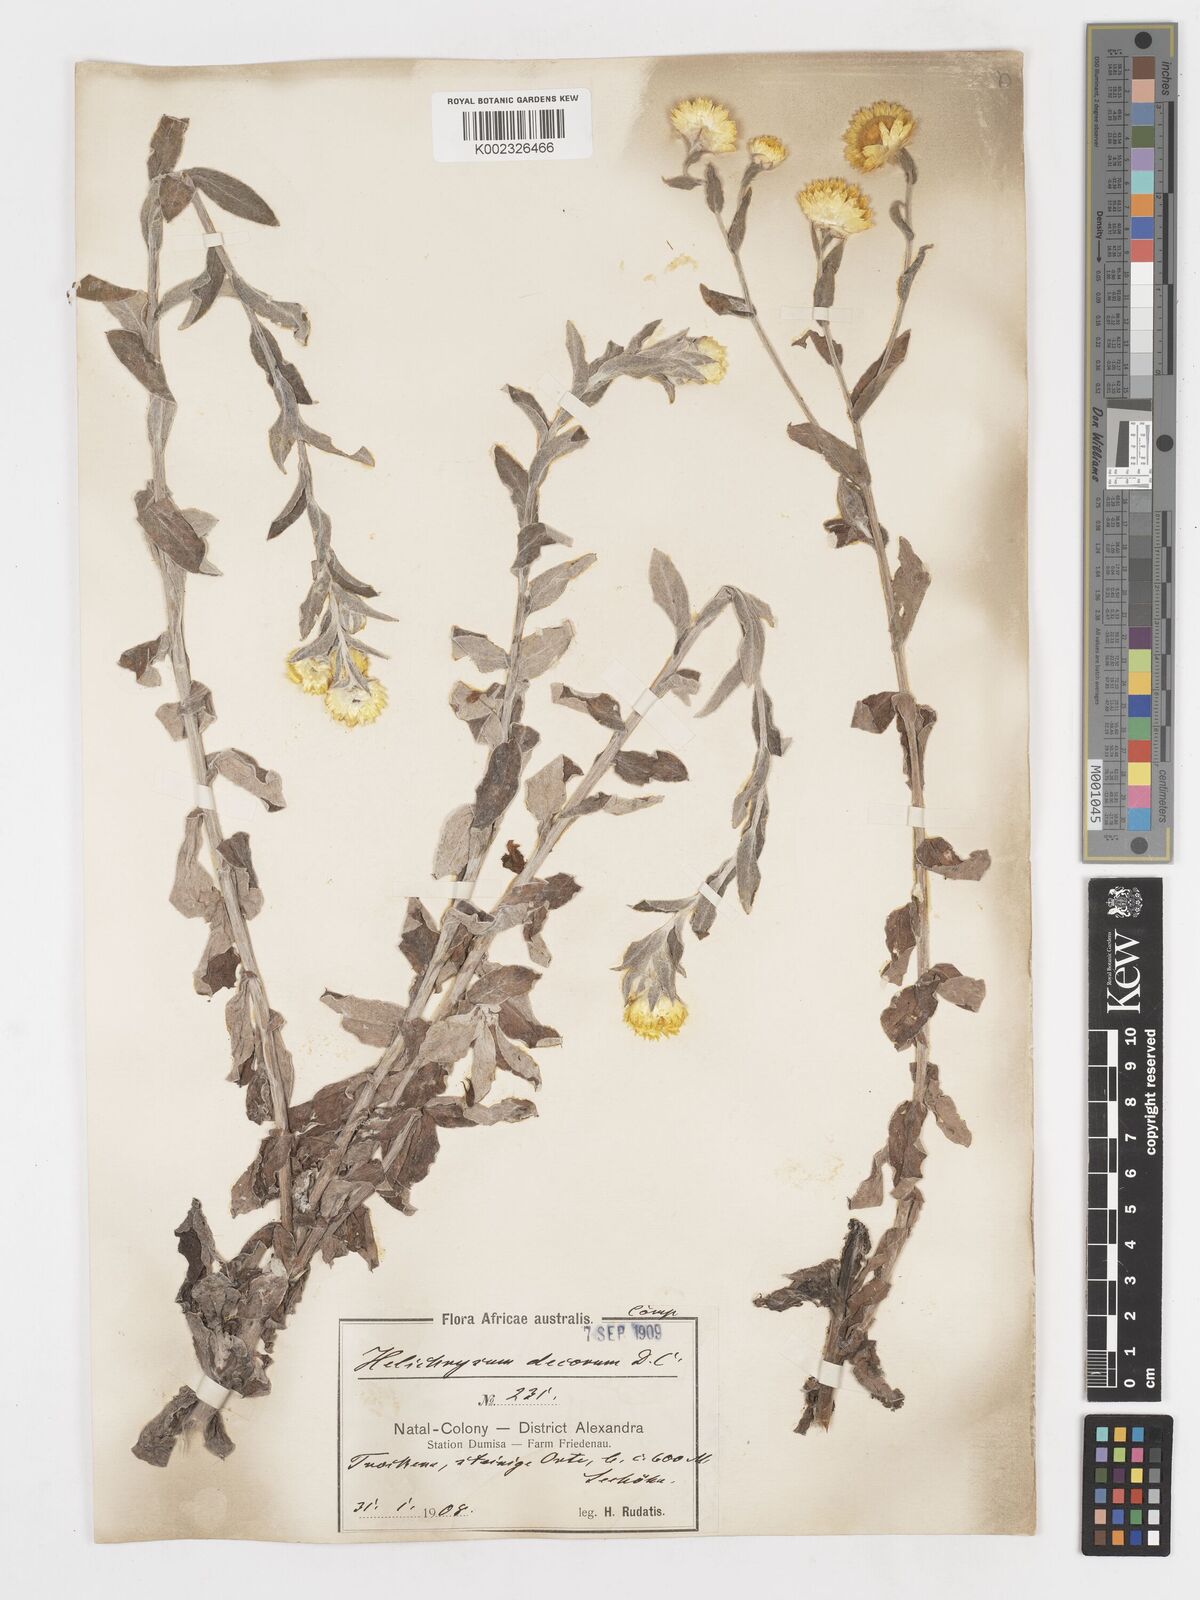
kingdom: Plantae
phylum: Tracheophyta
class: Magnoliopsida
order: Asterales
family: Asteraceae
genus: Helichrysum
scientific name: Helichrysum decorum
